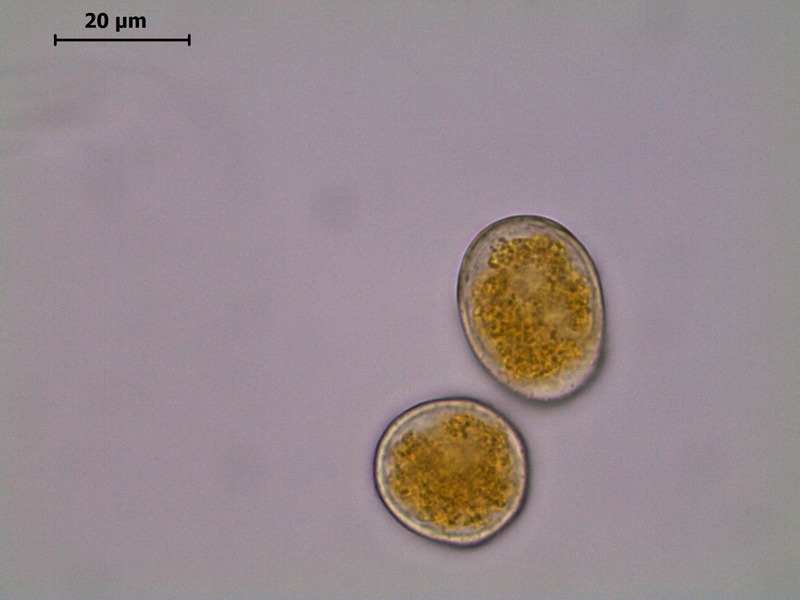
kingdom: Fungi
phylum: Basidiomycota
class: Pucciniomycetes
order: Pucciniales
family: Pucciniaceae
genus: Puccinia
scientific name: Puccinia porri
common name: Allium rust
